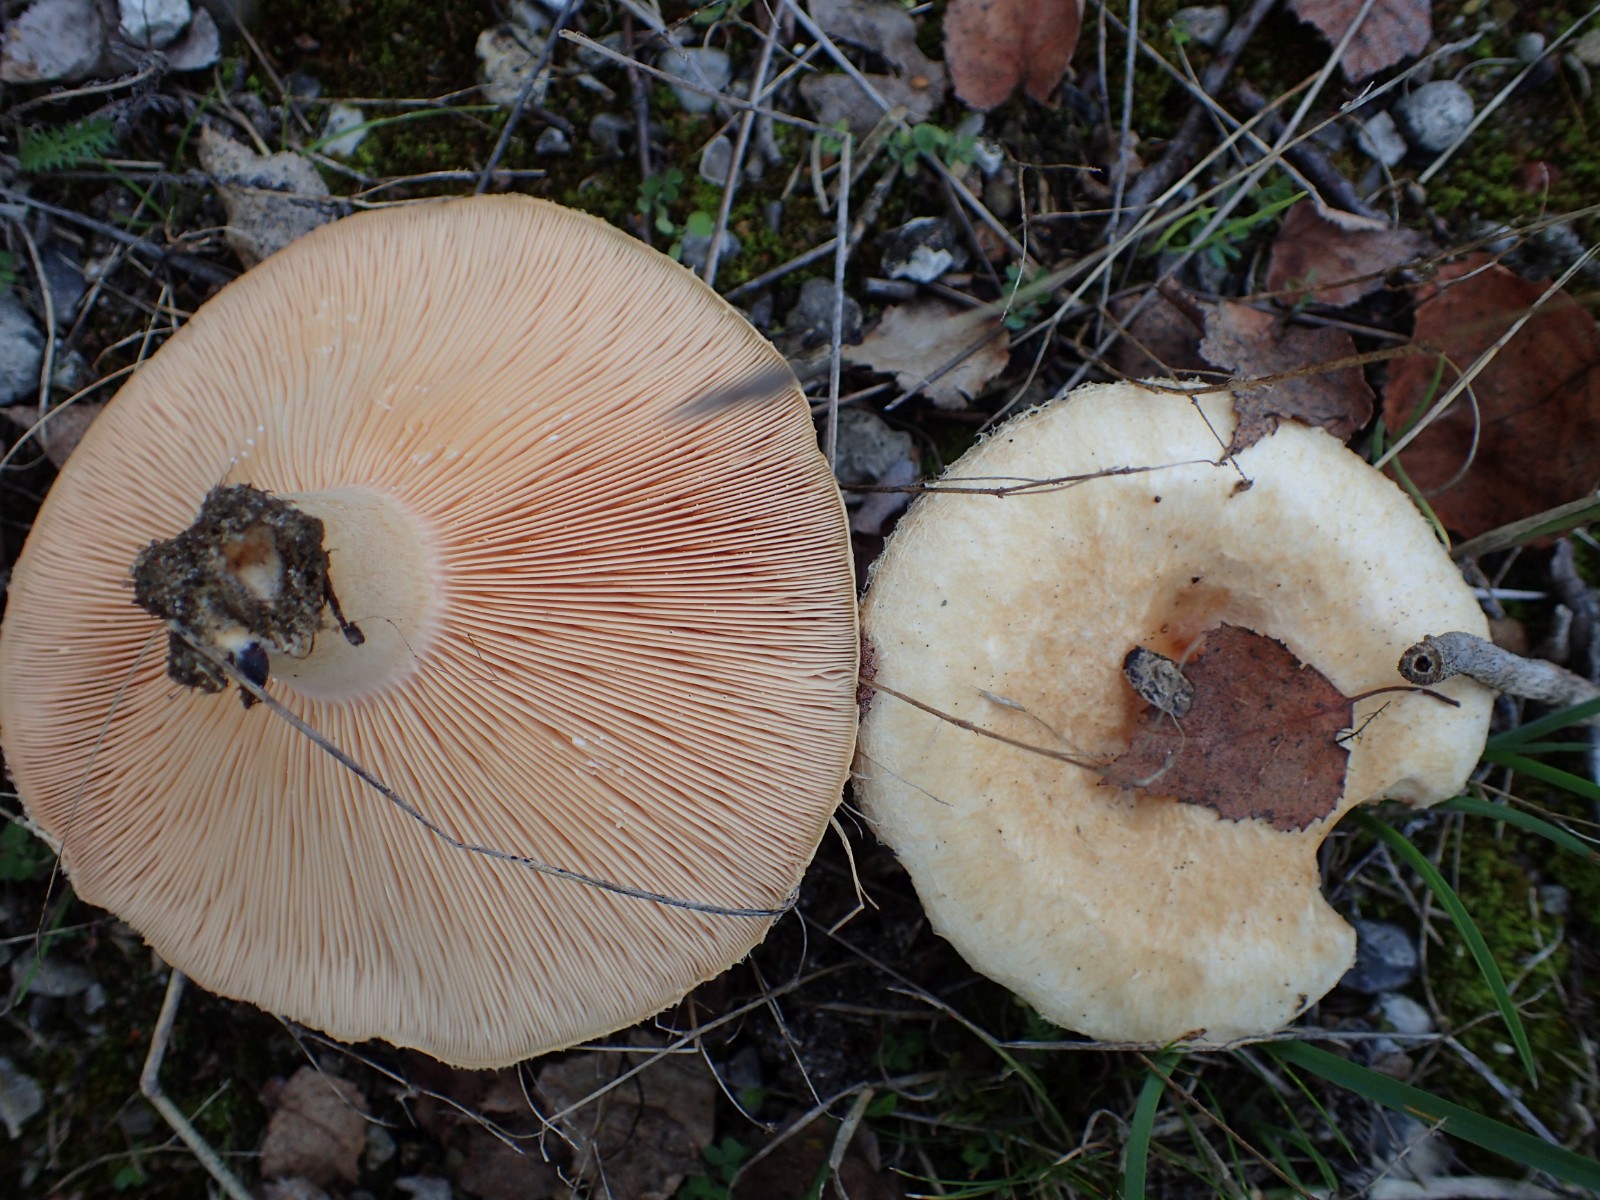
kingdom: Fungi
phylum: Basidiomycota
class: Agaricomycetes
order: Russulales
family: Russulaceae
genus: Lactarius
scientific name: Lactarius pubescens
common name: dunet mælkehat
